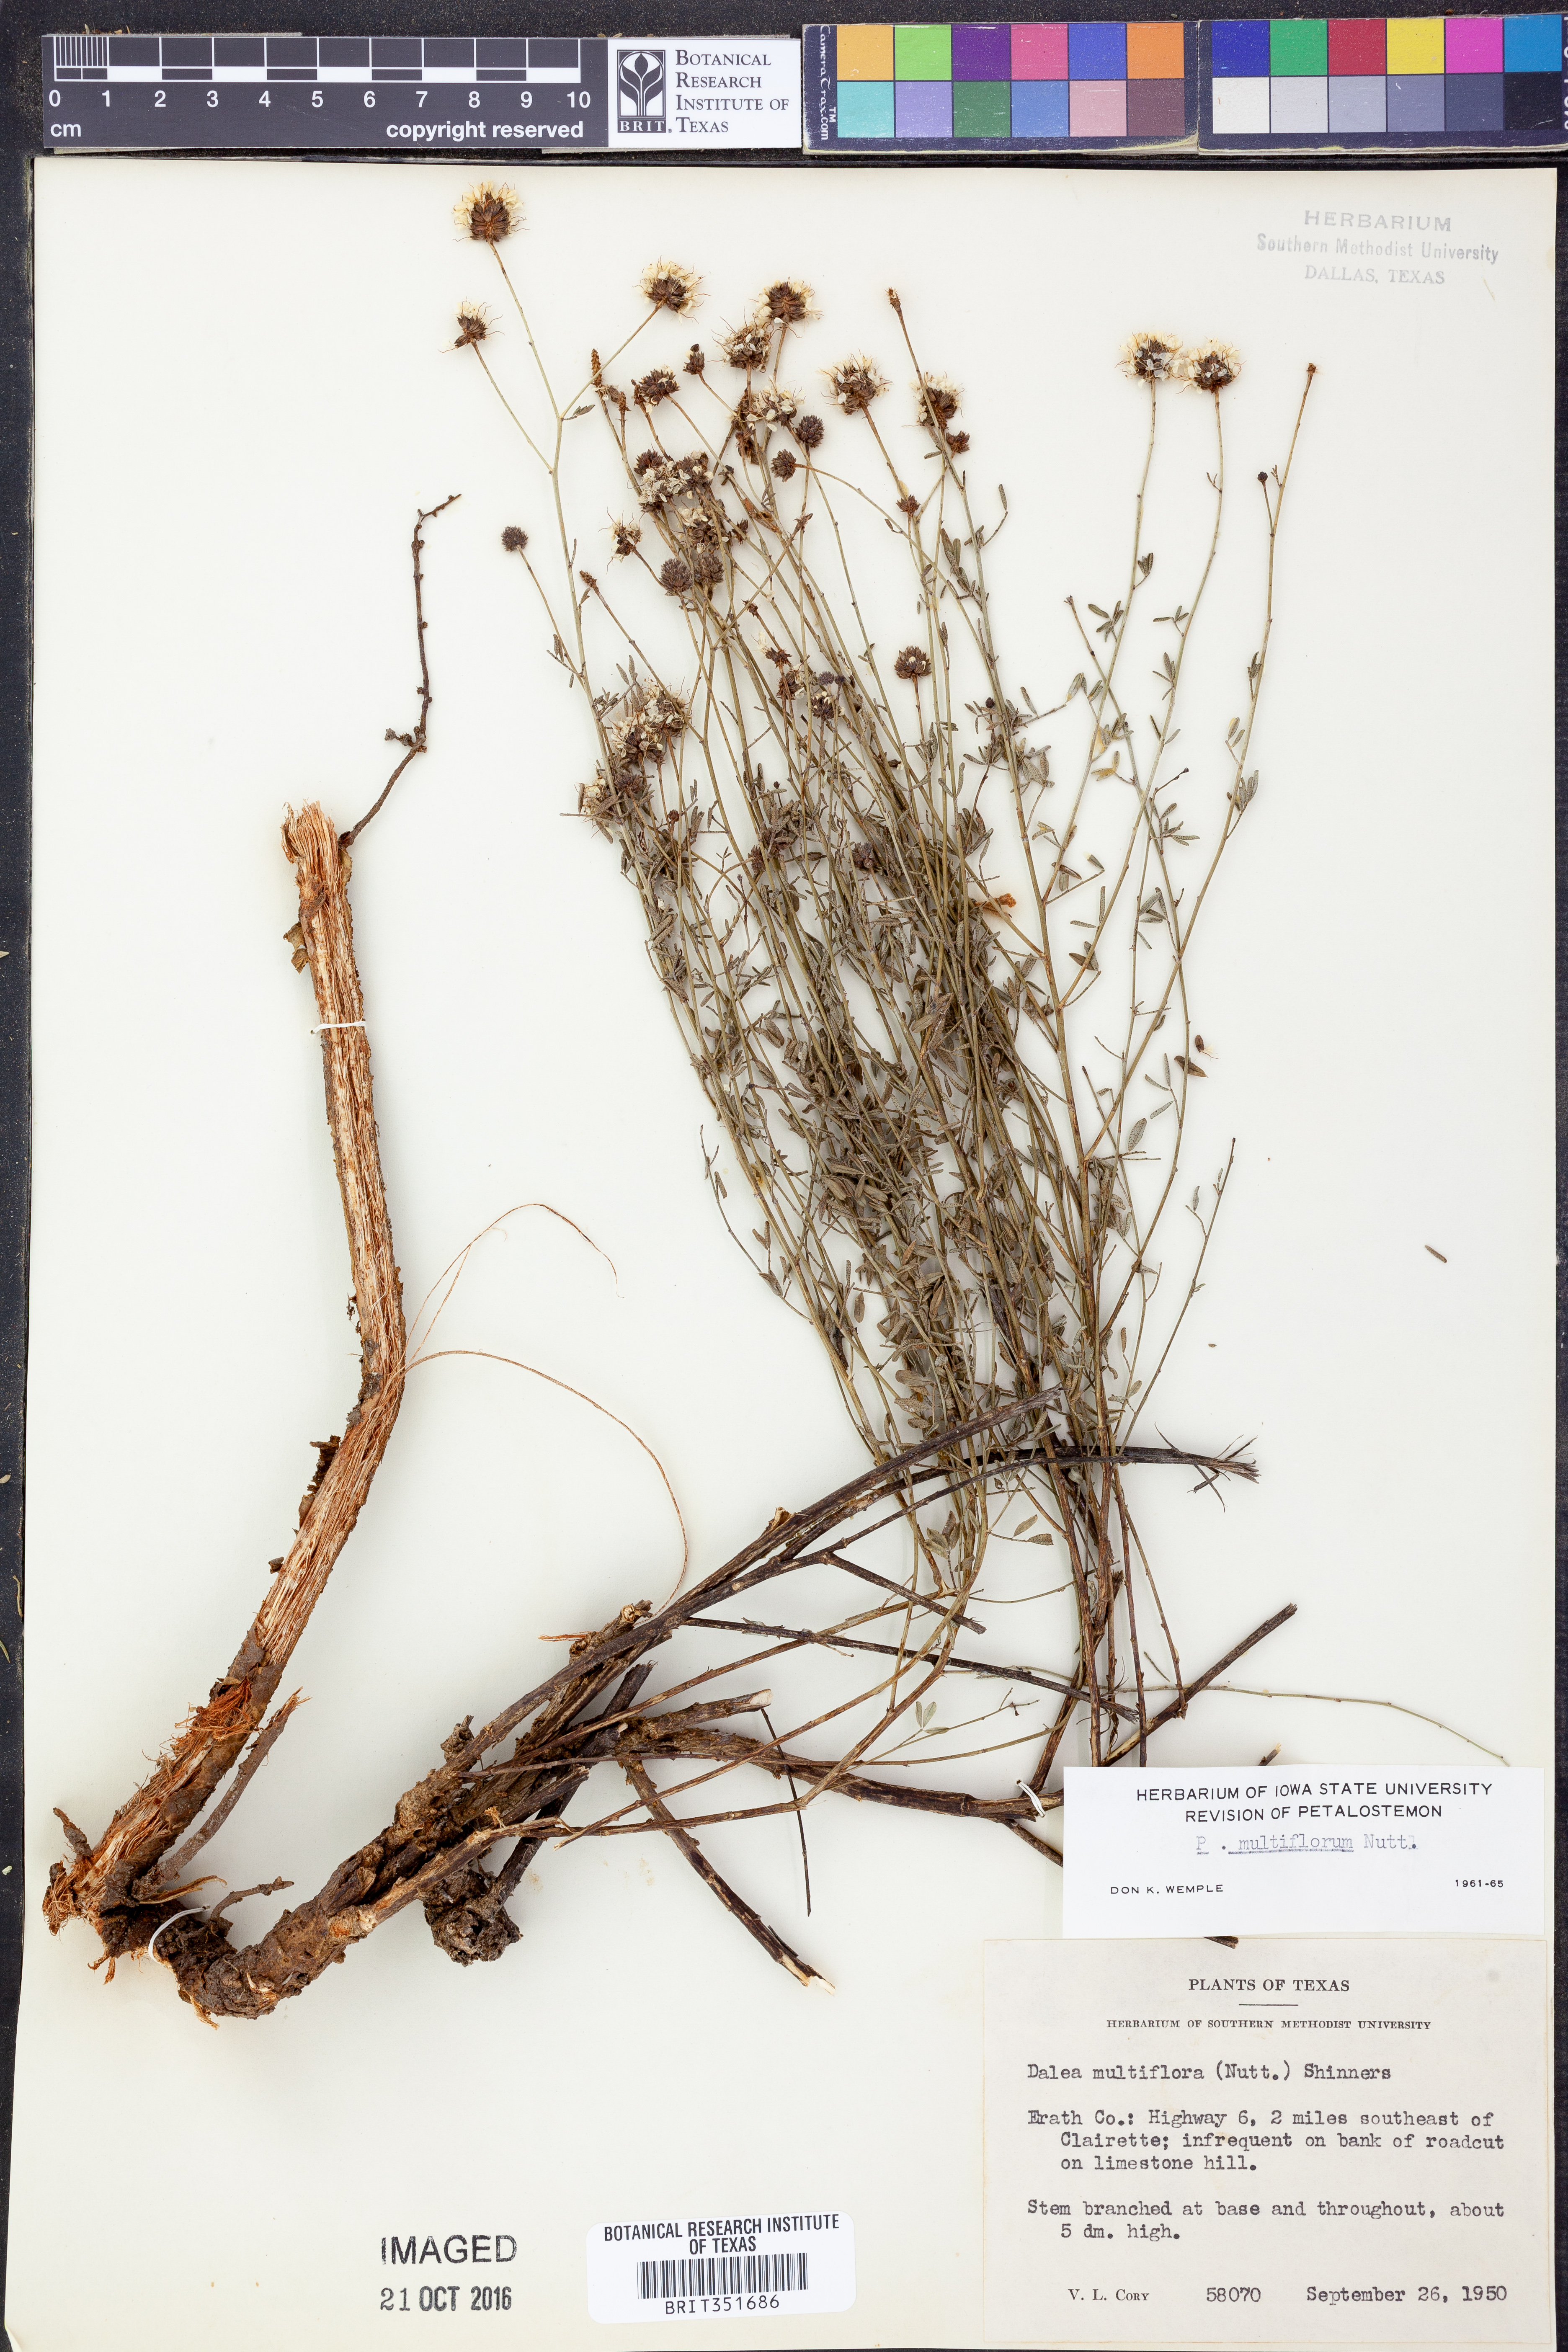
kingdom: Plantae
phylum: Tracheophyta
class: Magnoliopsida
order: Fabales
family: Fabaceae
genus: Dalea
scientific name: Dalea multiflora
